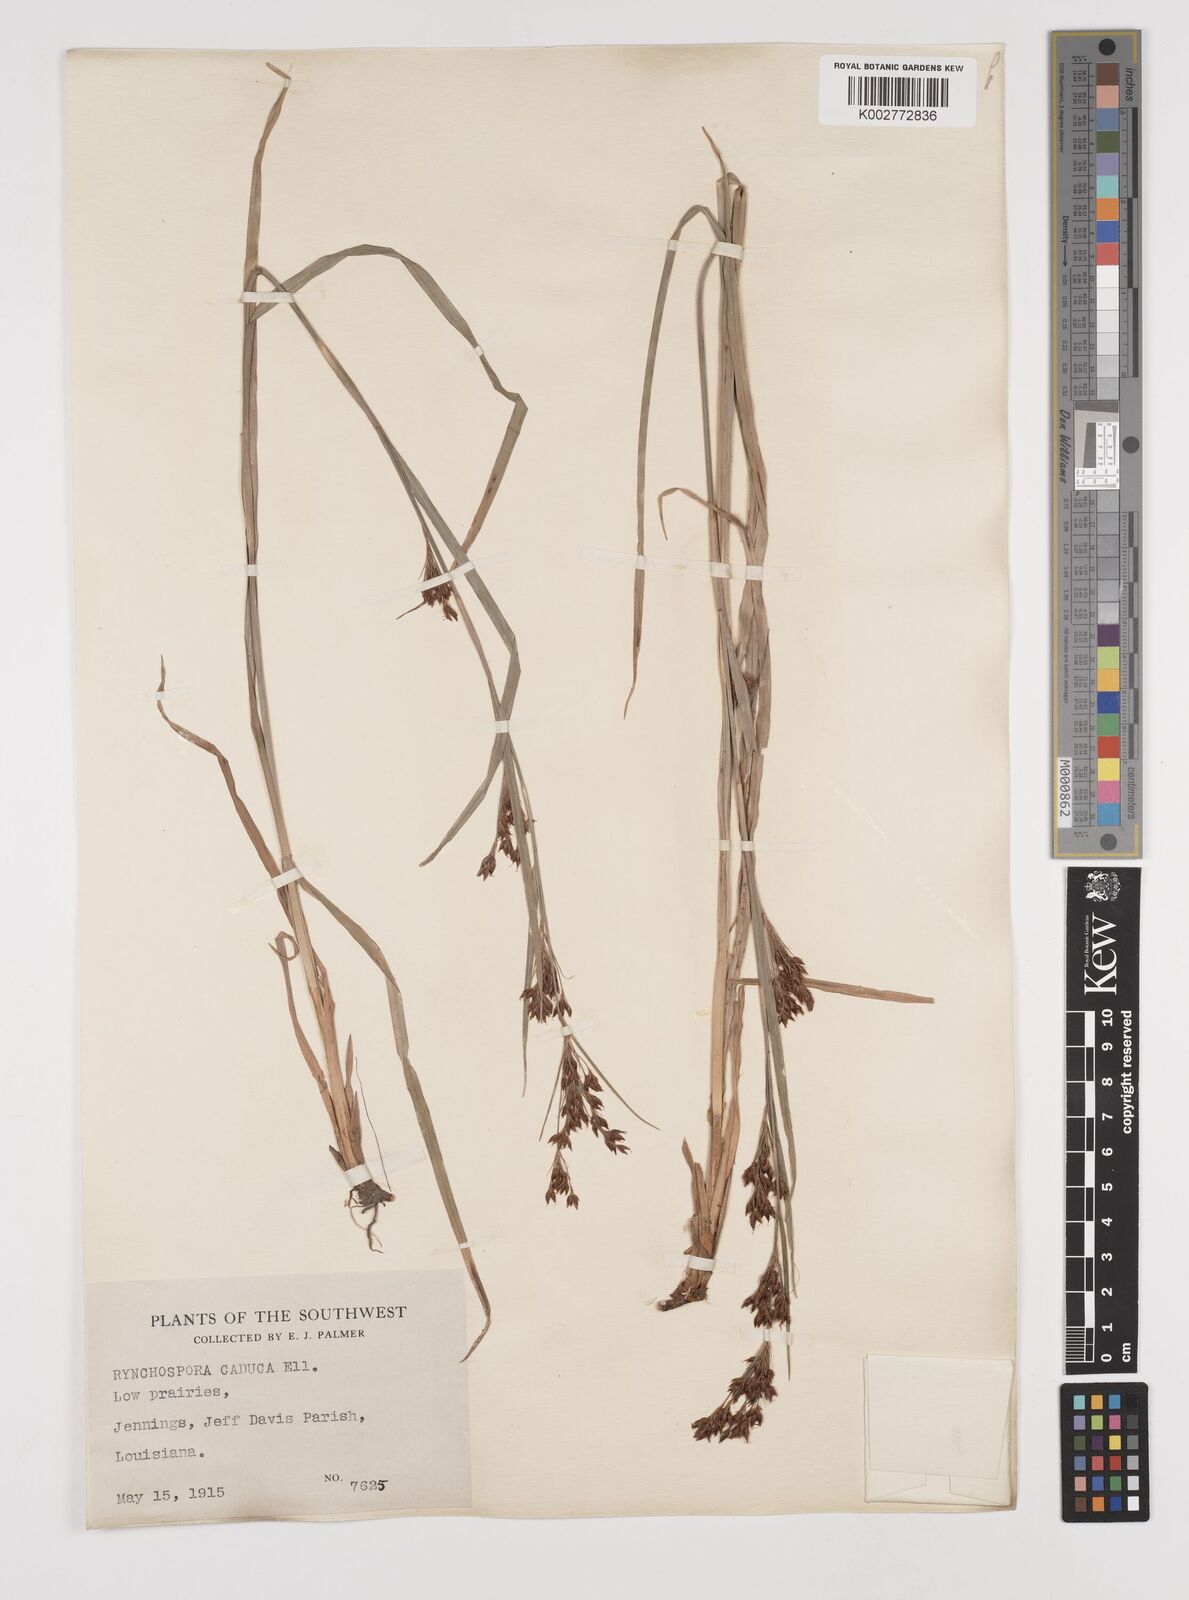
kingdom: Plantae
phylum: Tracheophyta
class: Liliopsida
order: Poales
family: Cyperaceae
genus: Rhynchospora
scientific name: Rhynchospora caduca
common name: Anglestem beaksedge
